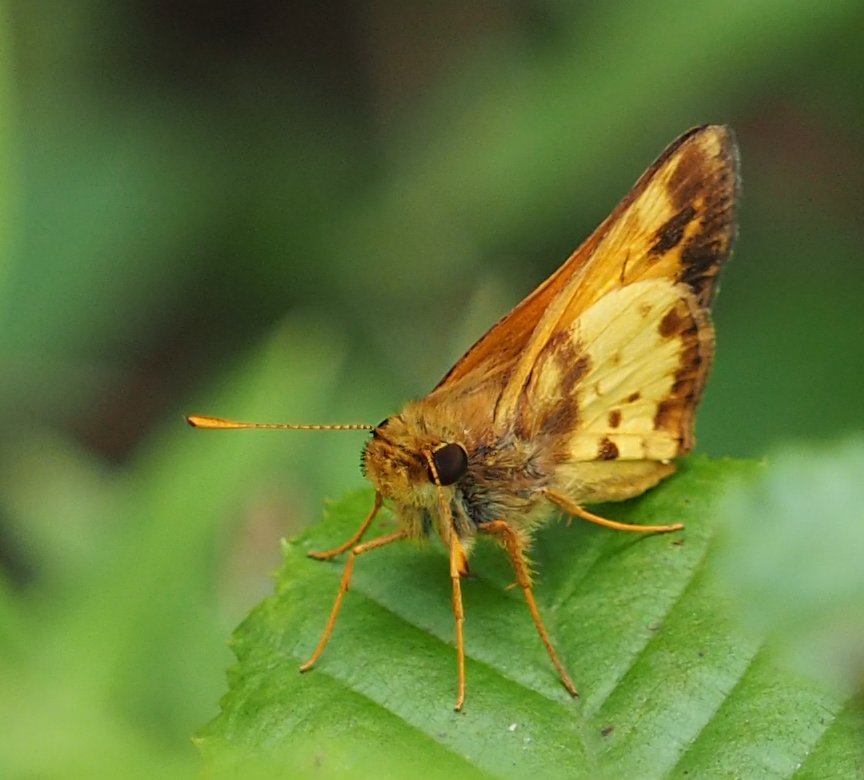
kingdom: Animalia
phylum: Arthropoda
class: Insecta
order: Lepidoptera
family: Hesperiidae
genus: Lon
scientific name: Lon zabulon
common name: Zabulon Skipper
